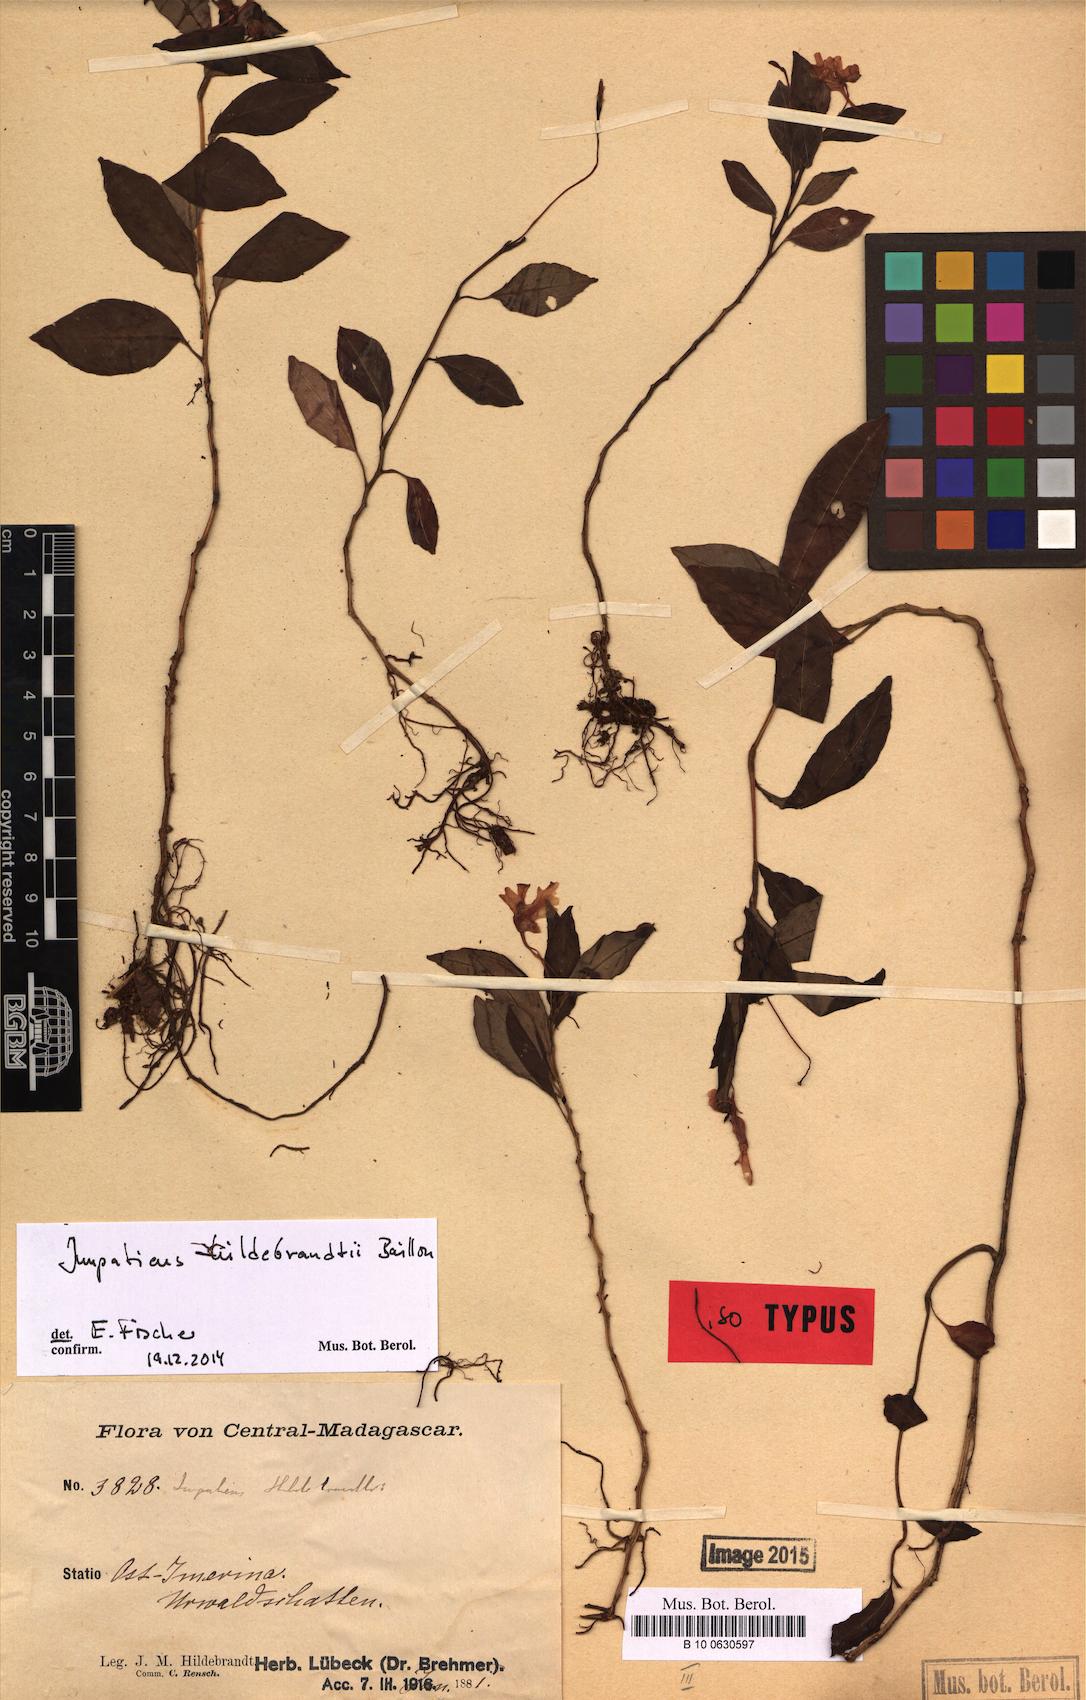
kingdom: Plantae
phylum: Tracheophyta
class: Magnoliopsida
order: Ericales
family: Balsaminaceae
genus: Impatiens
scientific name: Impatiens hildebrandtii
